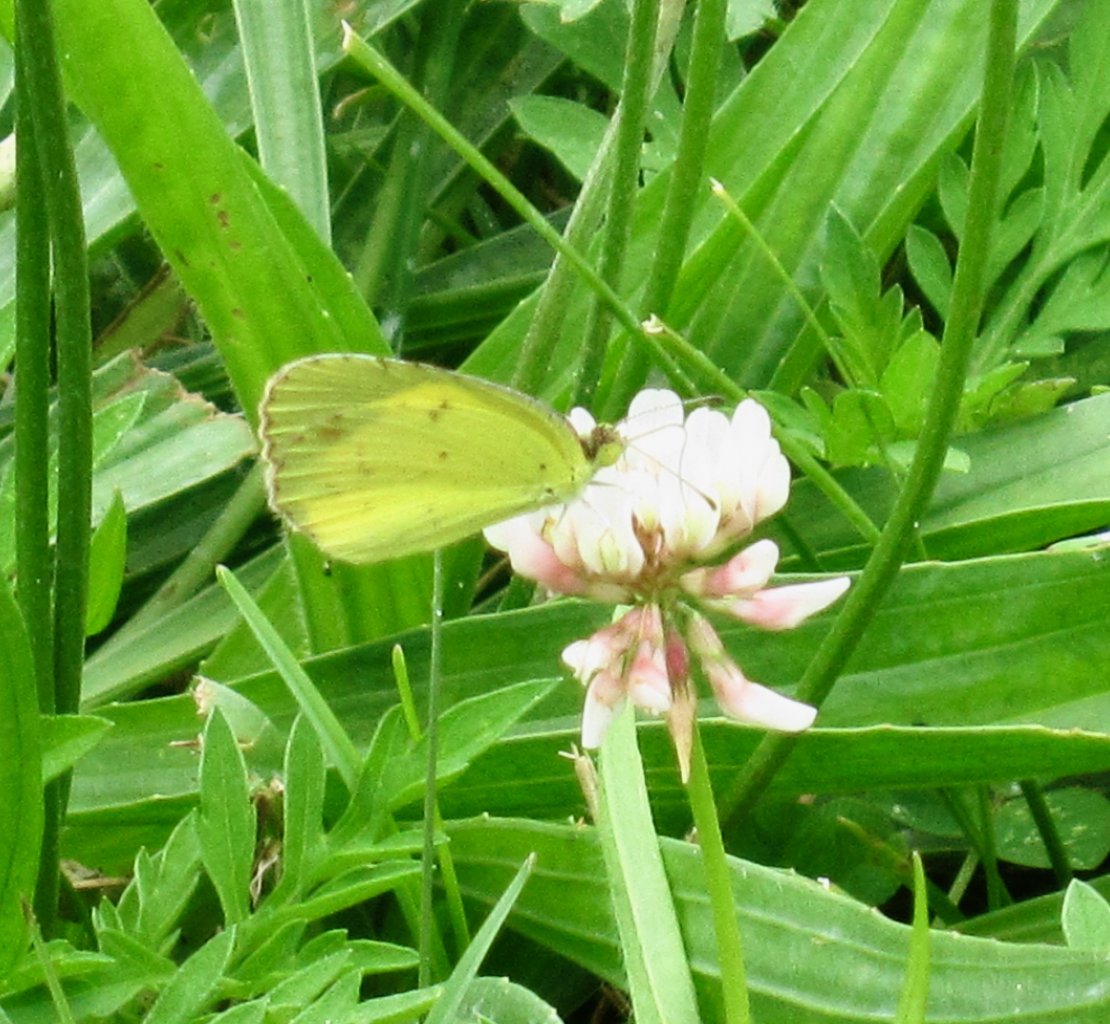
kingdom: Animalia
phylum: Arthropoda
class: Insecta
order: Lepidoptera
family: Pieridae
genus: Pyrisitia
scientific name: Pyrisitia lisa
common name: Little Yellow
